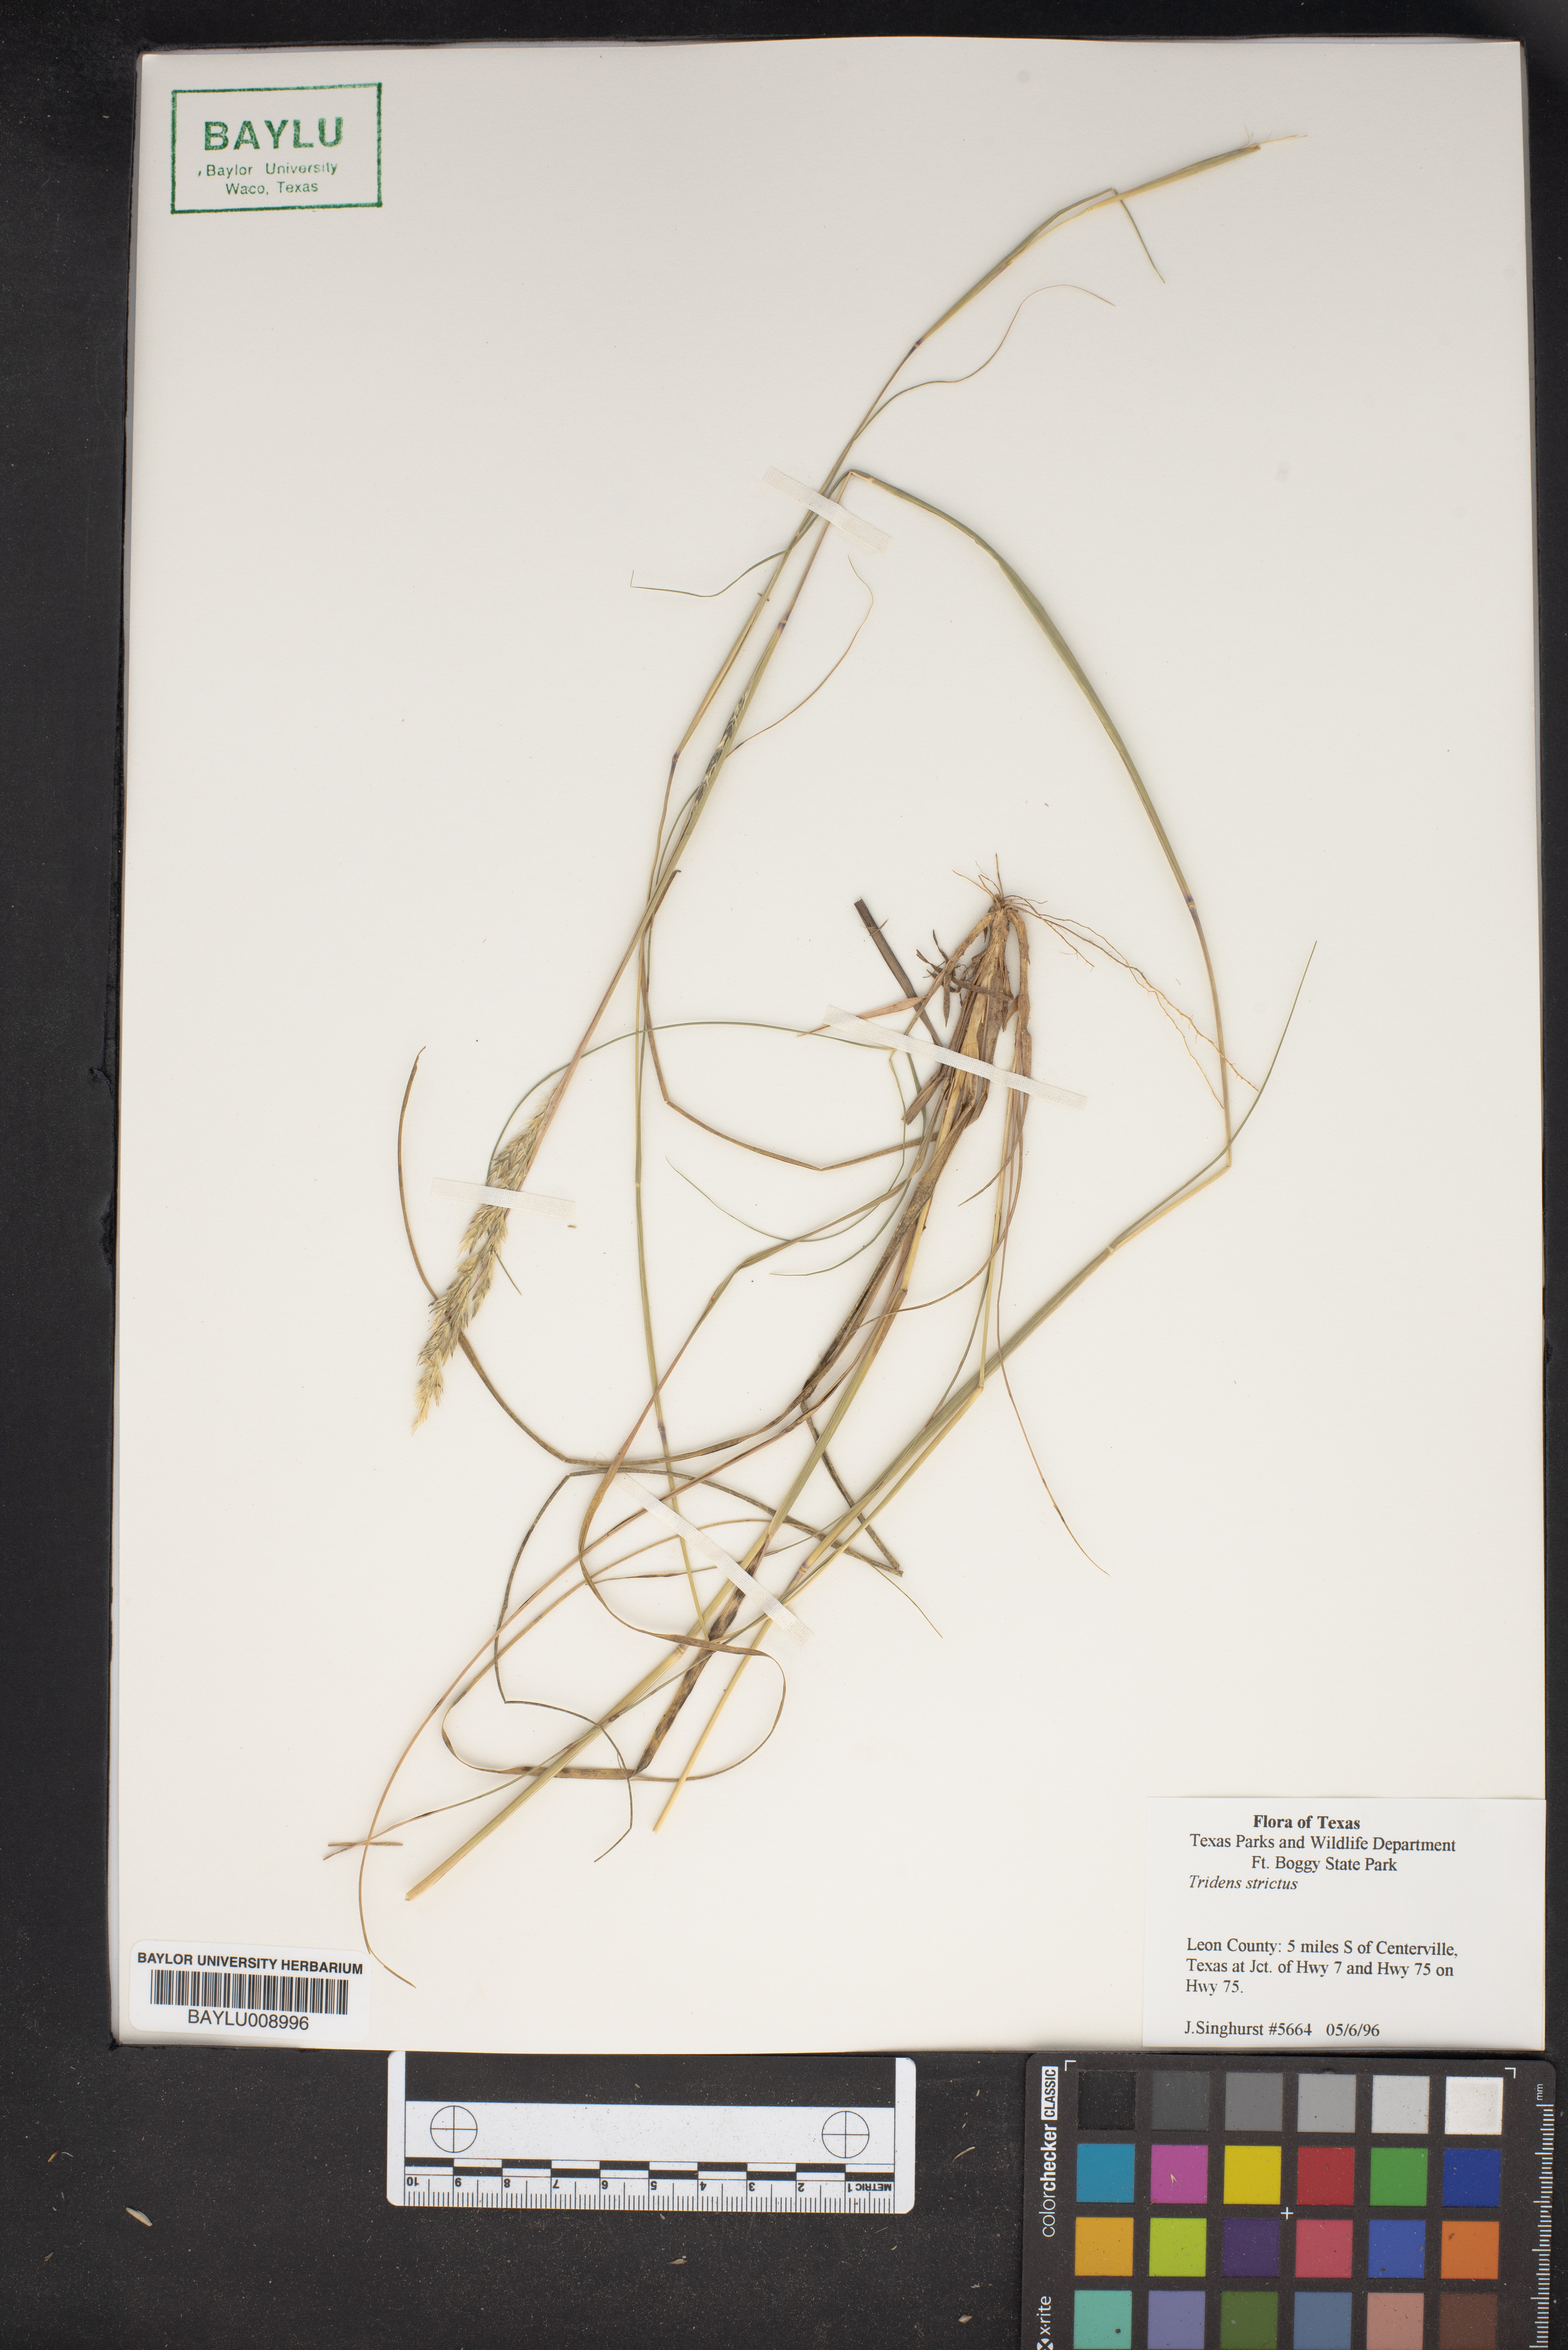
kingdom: Plantae
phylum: Tracheophyta
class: Liliopsida
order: Poales
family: Poaceae
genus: Tridens
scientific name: Tridens strictus
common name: Long-spike tridens
